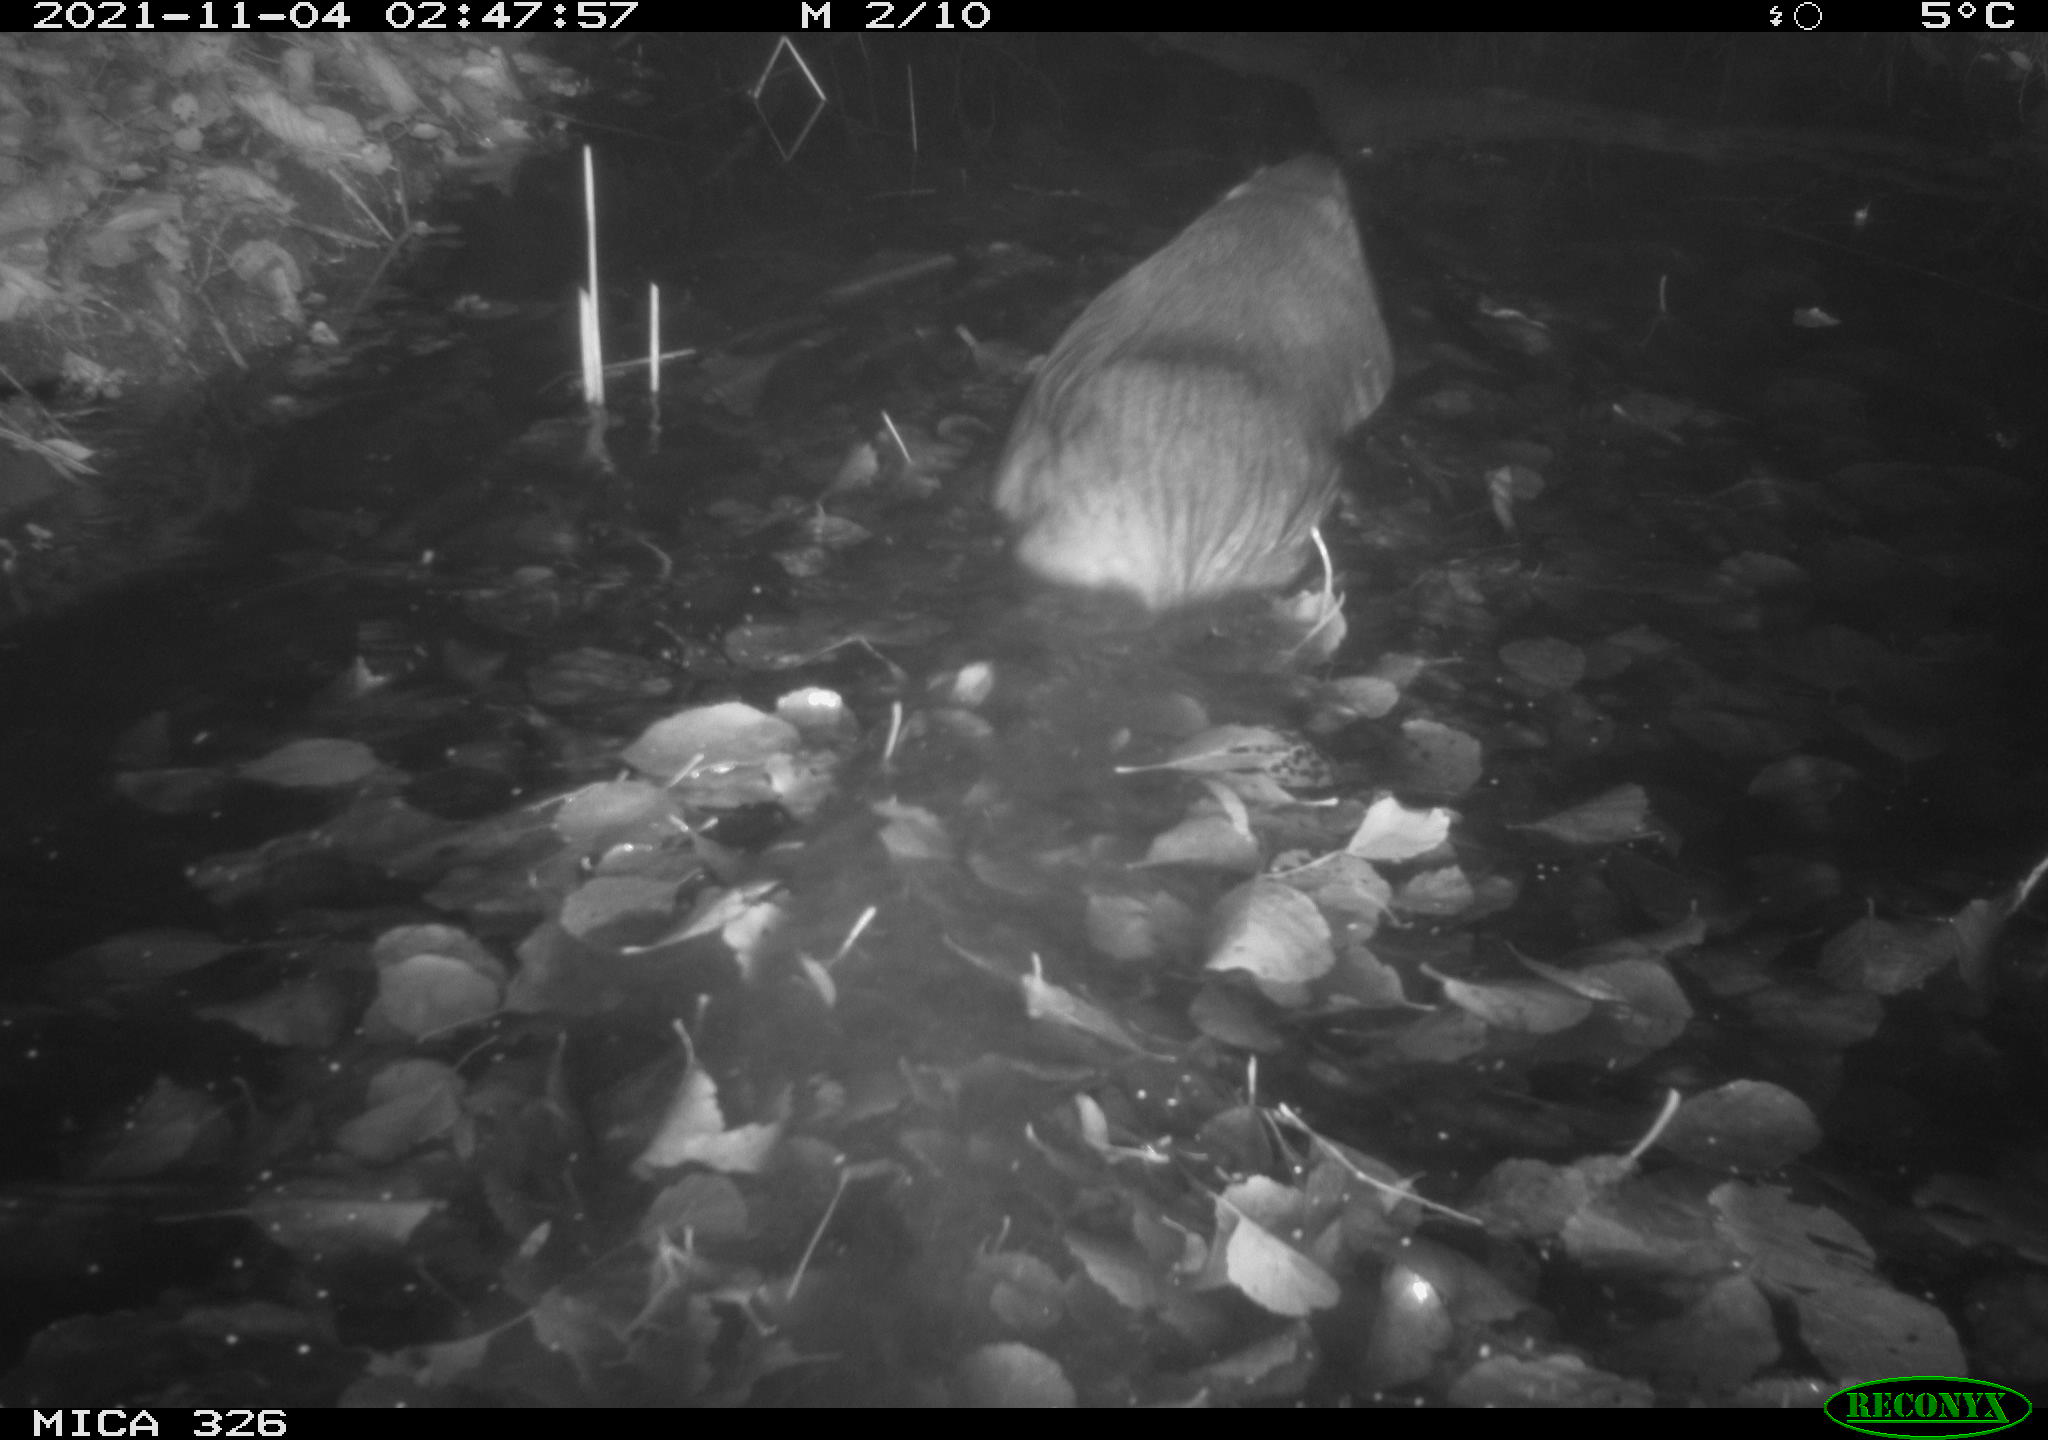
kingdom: Animalia
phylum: Chordata
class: Mammalia
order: Rodentia
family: Myocastoridae
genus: Myocastor
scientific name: Myocastor coypus
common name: Coypu
